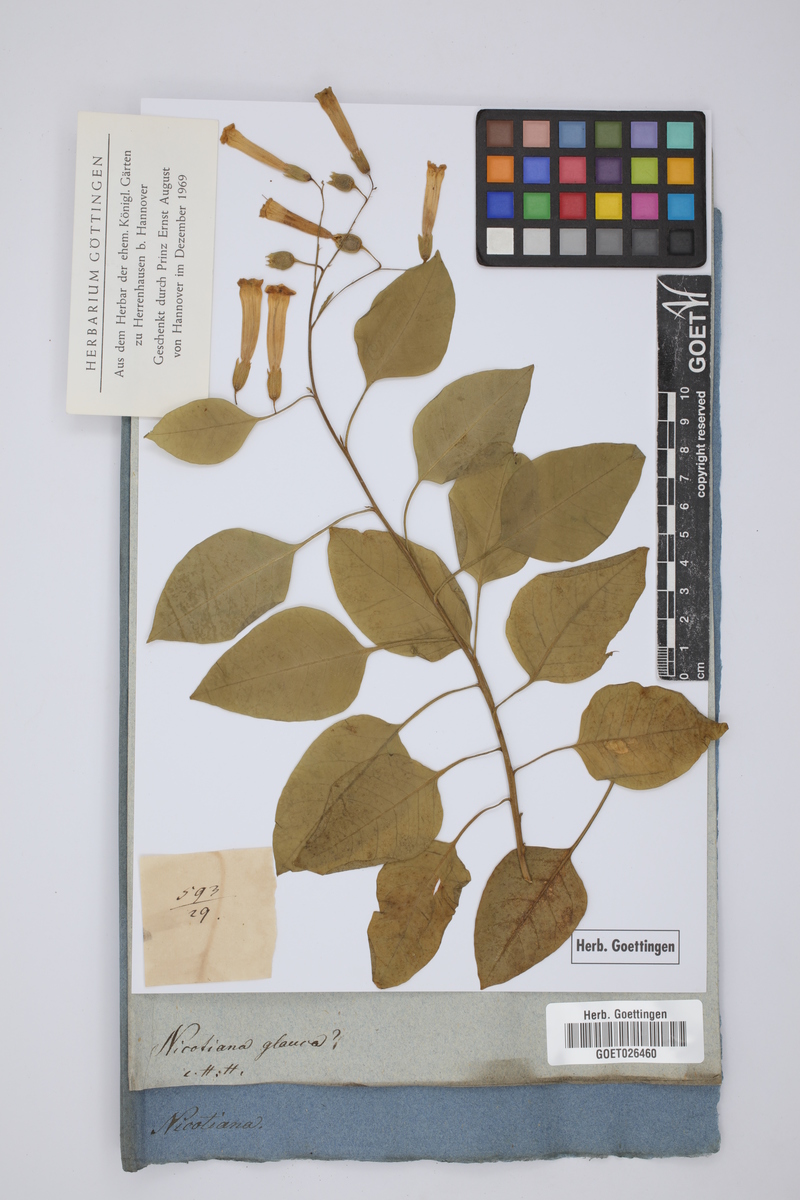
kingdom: Plantae
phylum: Tracheophyta
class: Magnoliopsida
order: Solanales
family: Solanaceae
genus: Nicotiana
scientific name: Nicotiana glauca
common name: Tree tobacco
